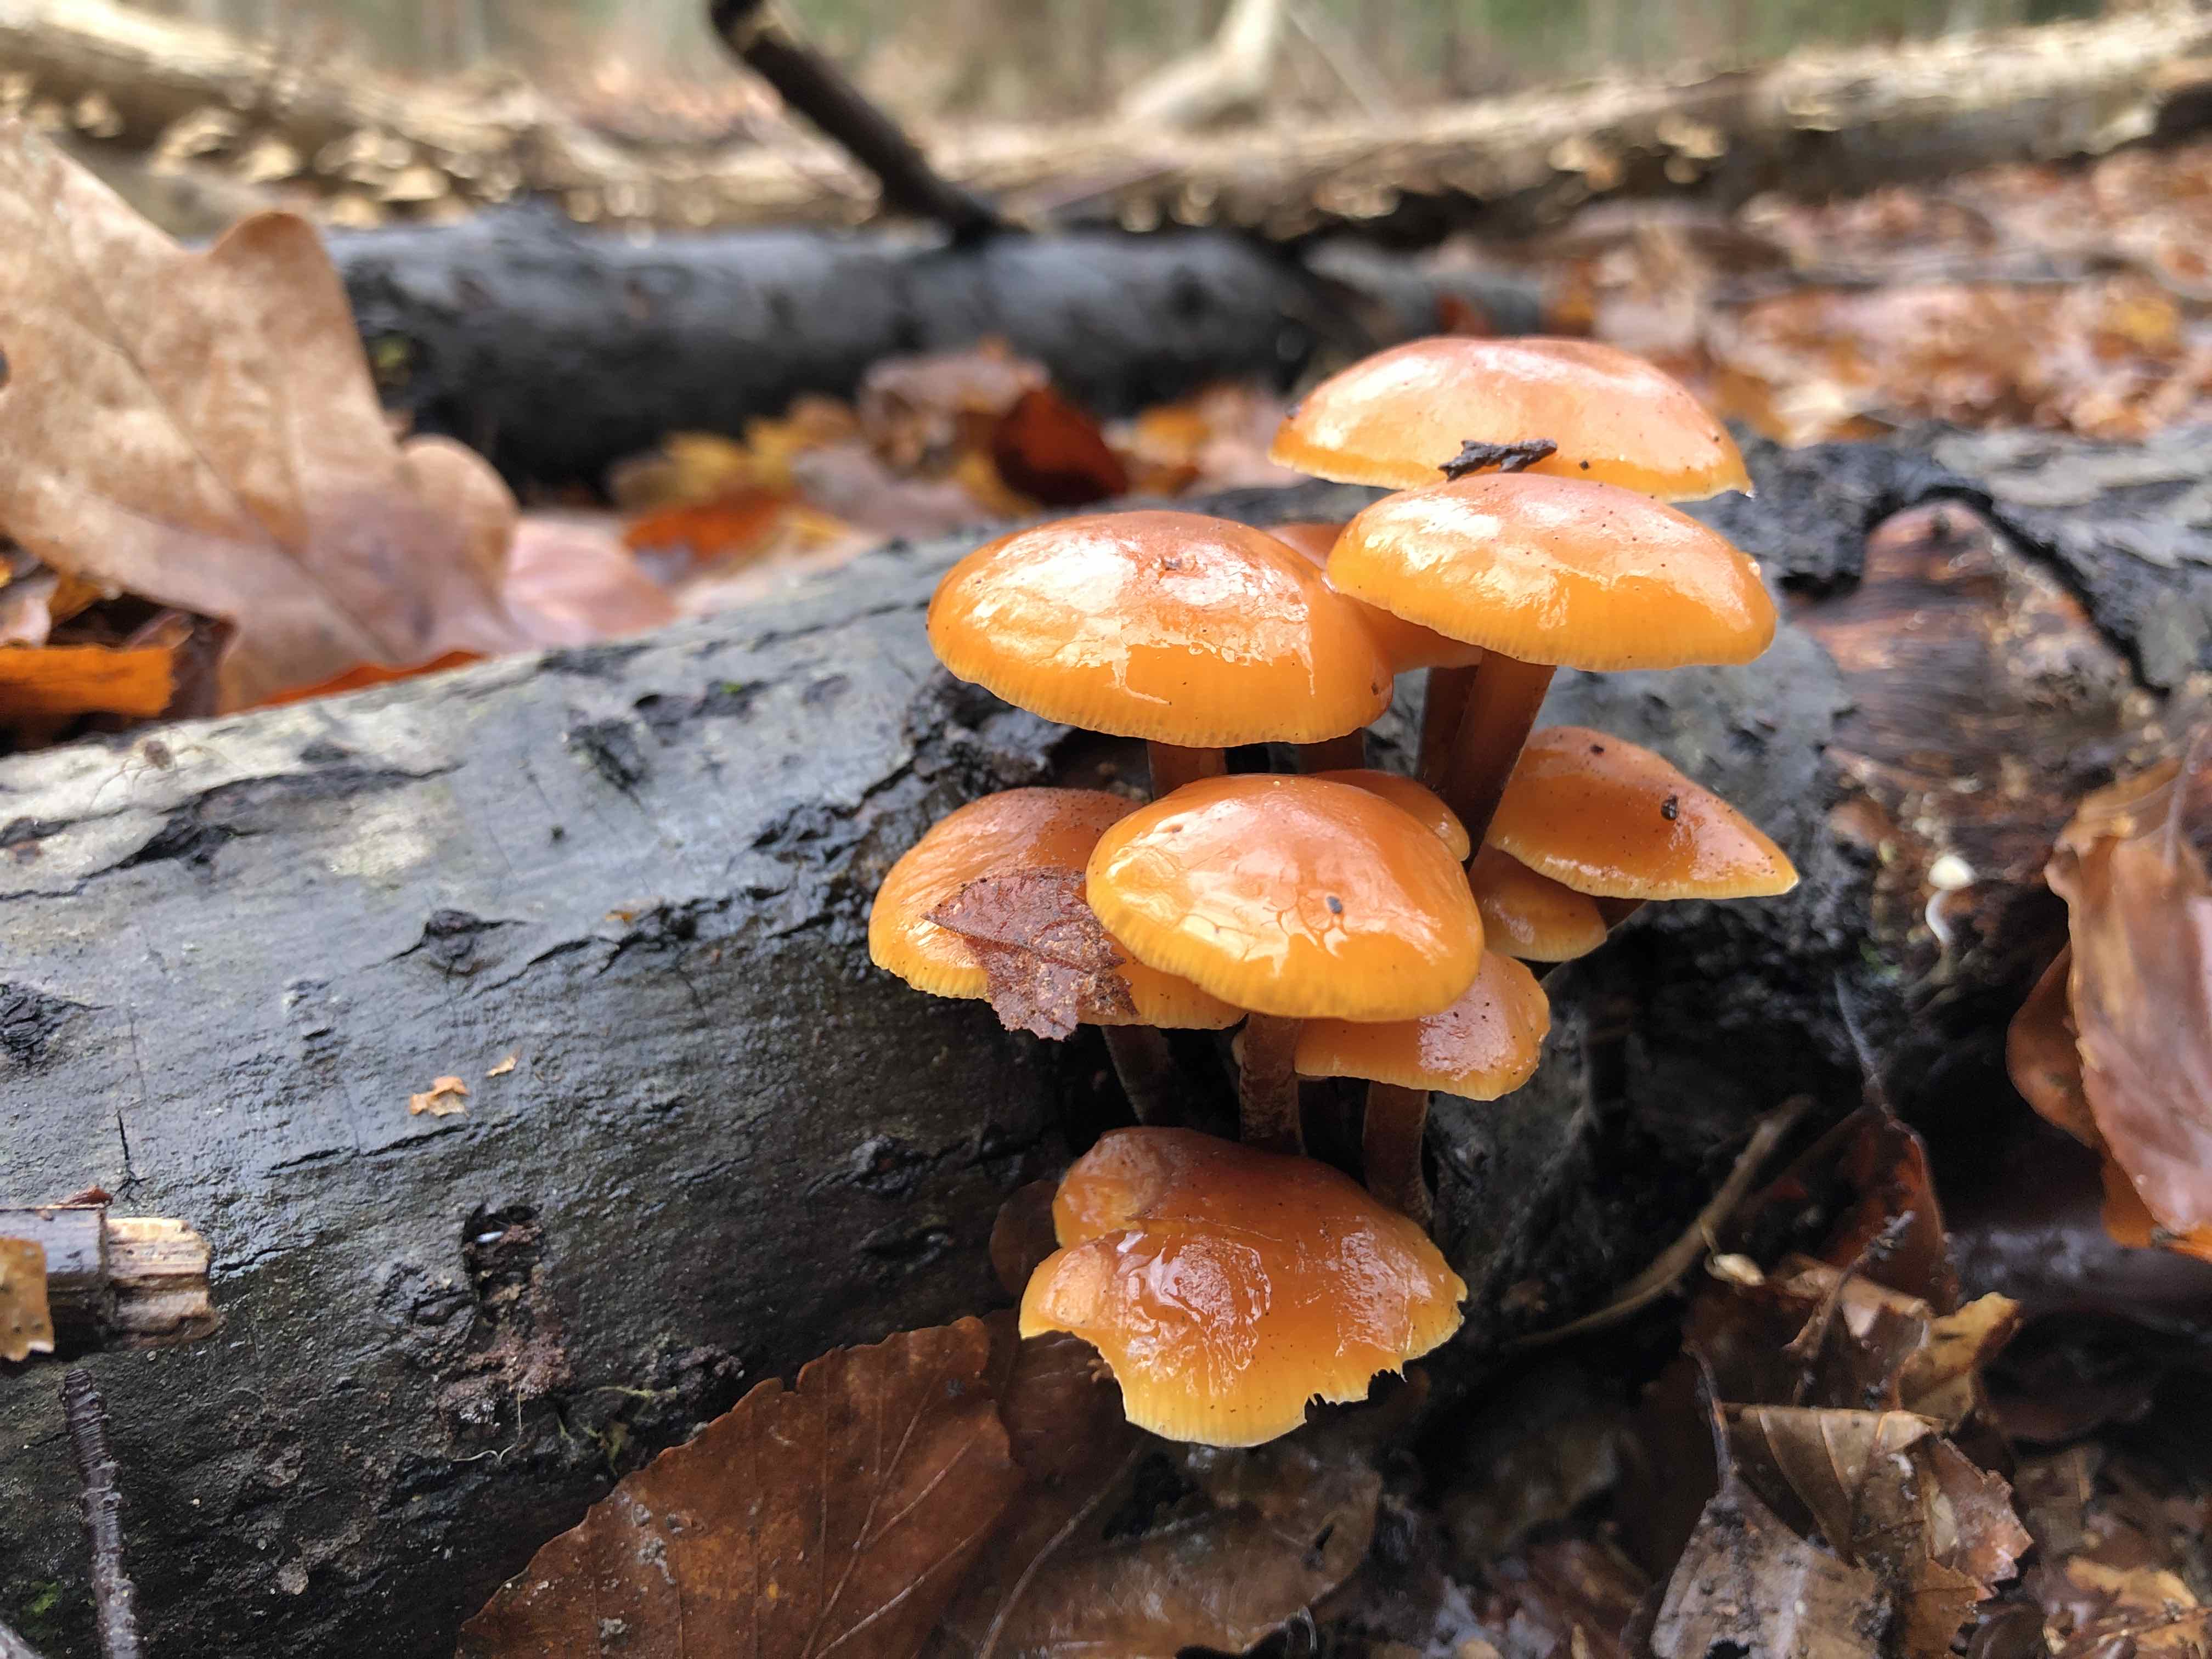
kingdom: Fungi
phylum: Basidiomycota
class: Agaricomycetes
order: Agaricales
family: Physalacriaceae
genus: Flammulina
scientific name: Flammulina velutipes
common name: gul fløjlsfod
